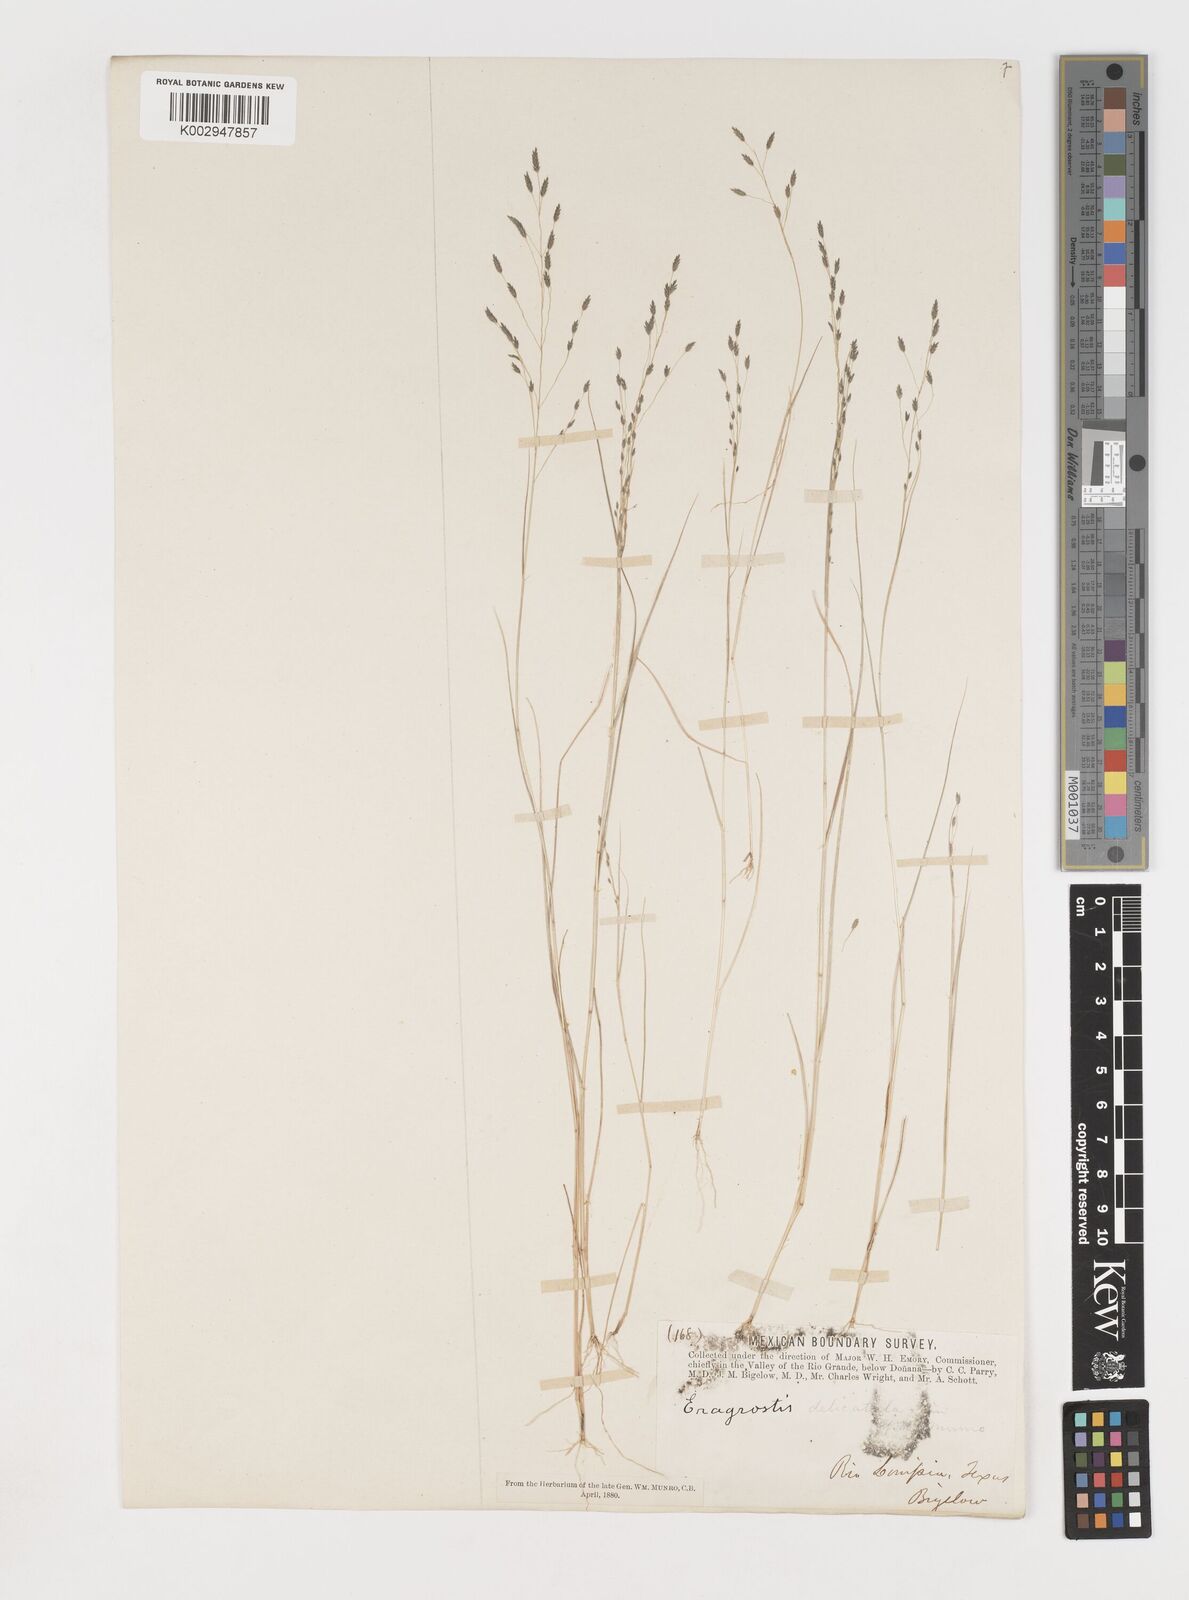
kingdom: Plantae
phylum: Tracheophyta
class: Liliopsida
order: Poales
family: Poaceae
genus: Eragrostis
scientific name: Eragrostis pectinacea
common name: Tufted lovegrass
